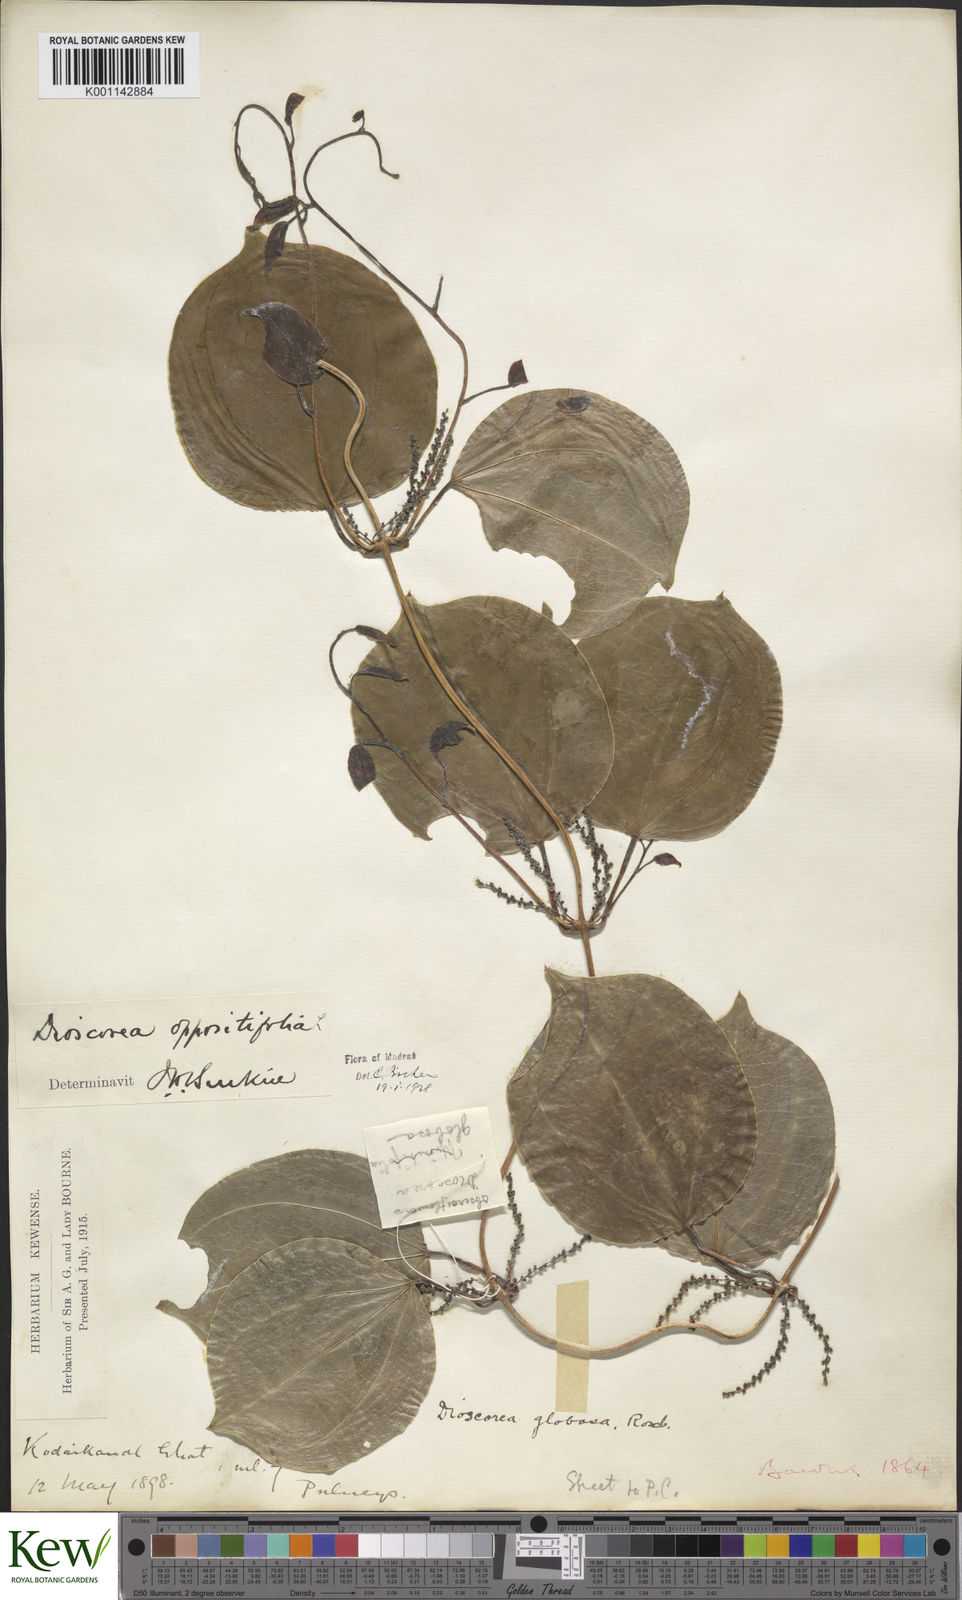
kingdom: Plantae
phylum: Tracheophyta
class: Liliopsida
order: Dioscoreales
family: Dioscoreaceae
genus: Dioscorea
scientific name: Dioscorea oppositifolia
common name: Chinese yam
